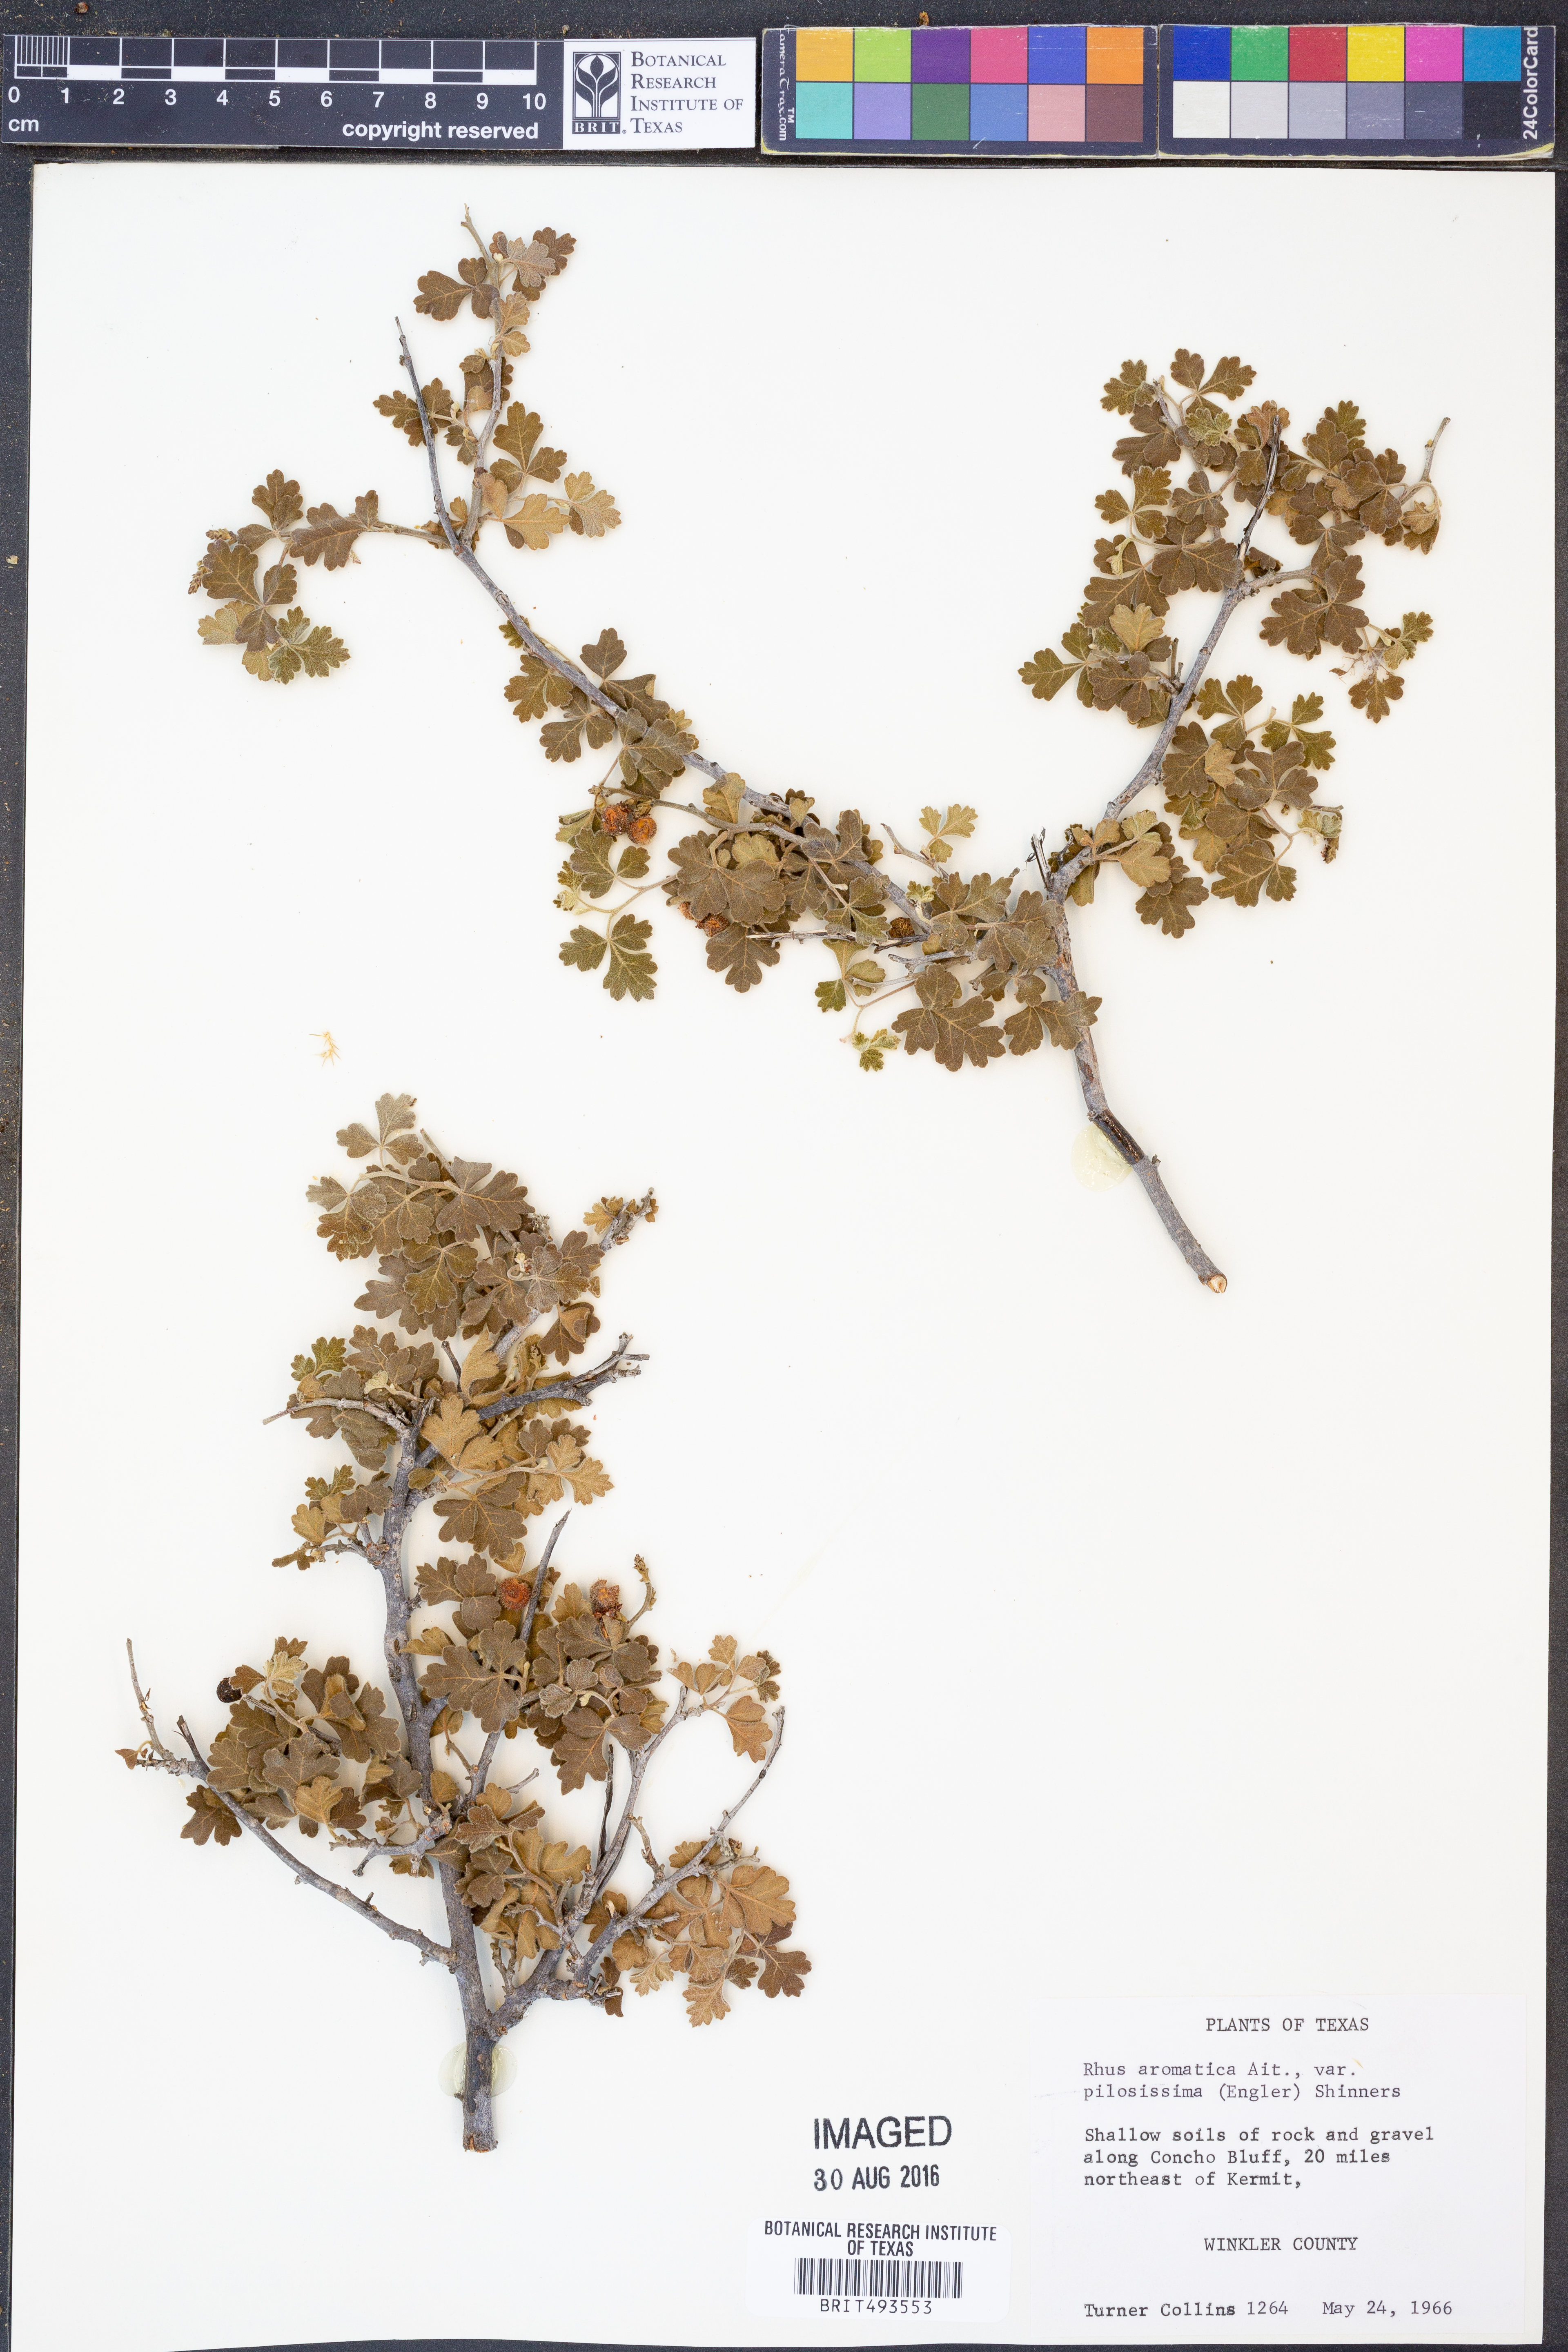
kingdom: Plantae
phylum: Tracheophyta
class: Magnoliopsida
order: Sapindales
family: Anacardiaceae
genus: Rhus
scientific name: Rhus trilobata
